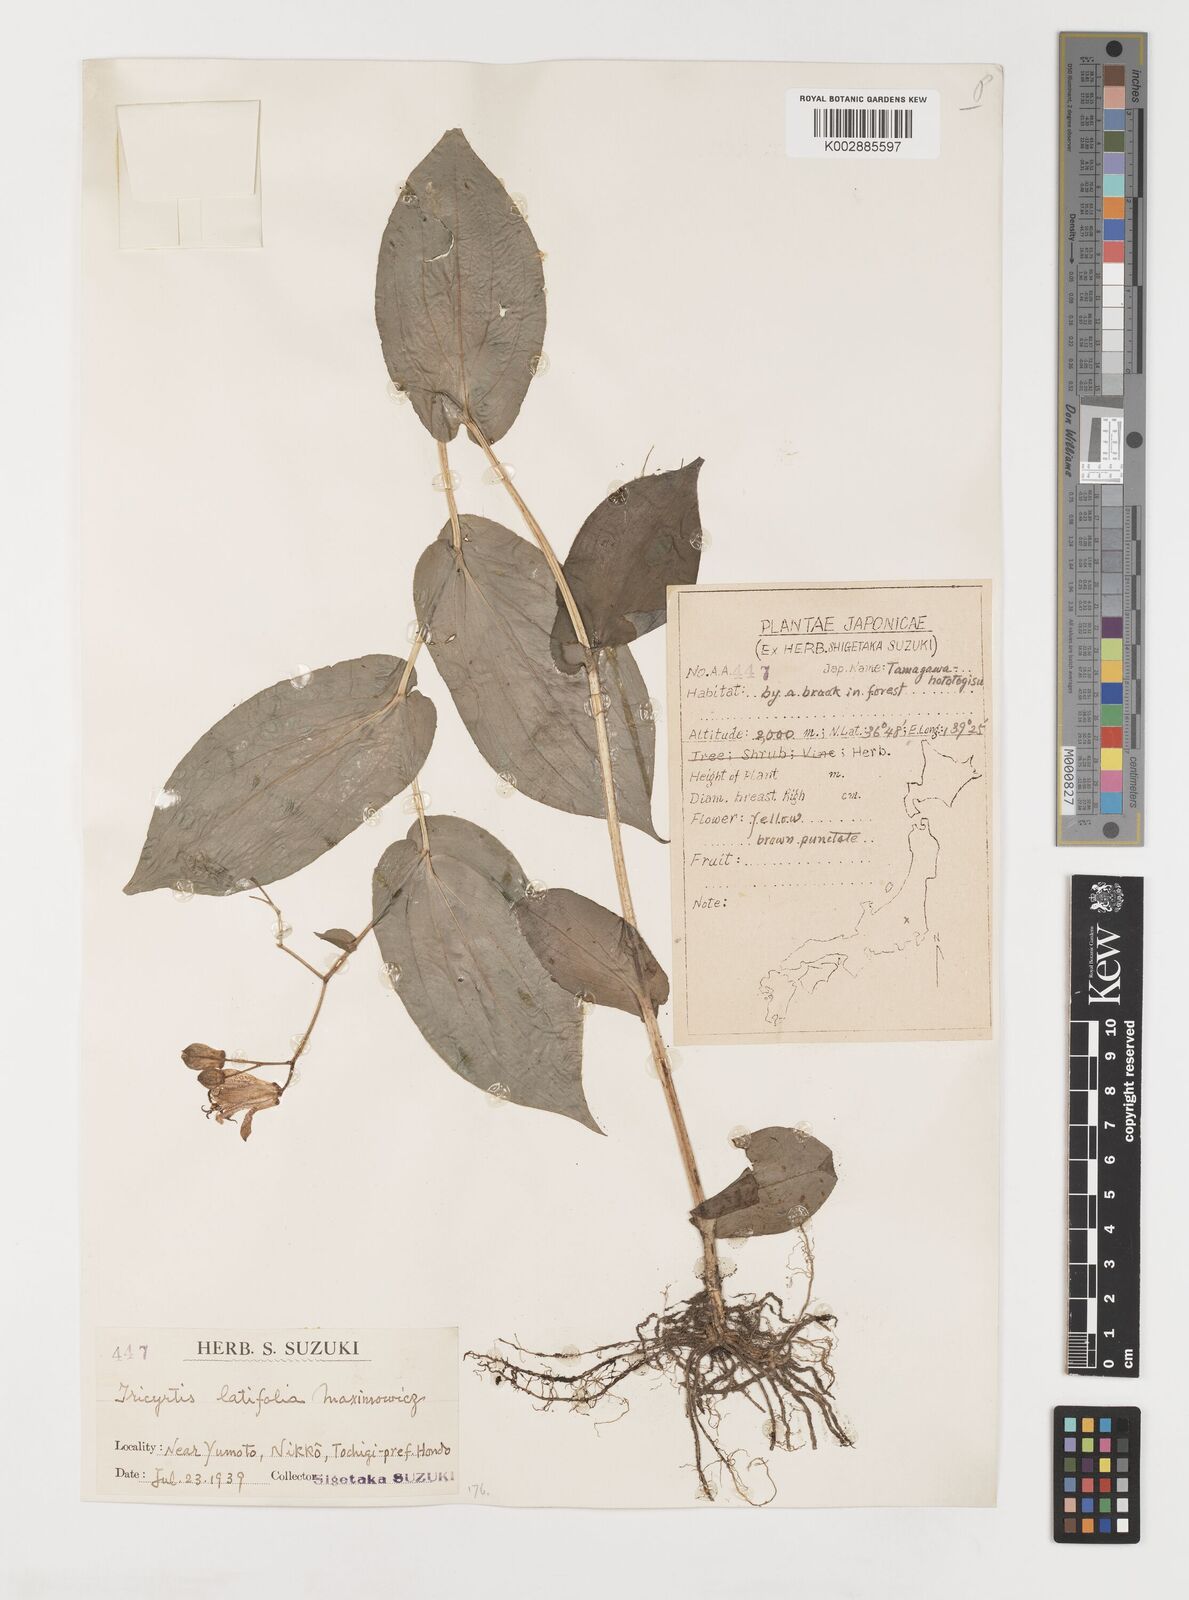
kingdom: Plantae
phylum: Tracheophyta
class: Liliopsida
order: Liliales
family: Liliaceae
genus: Tricyrtis
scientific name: Tricyrtis latifolia
